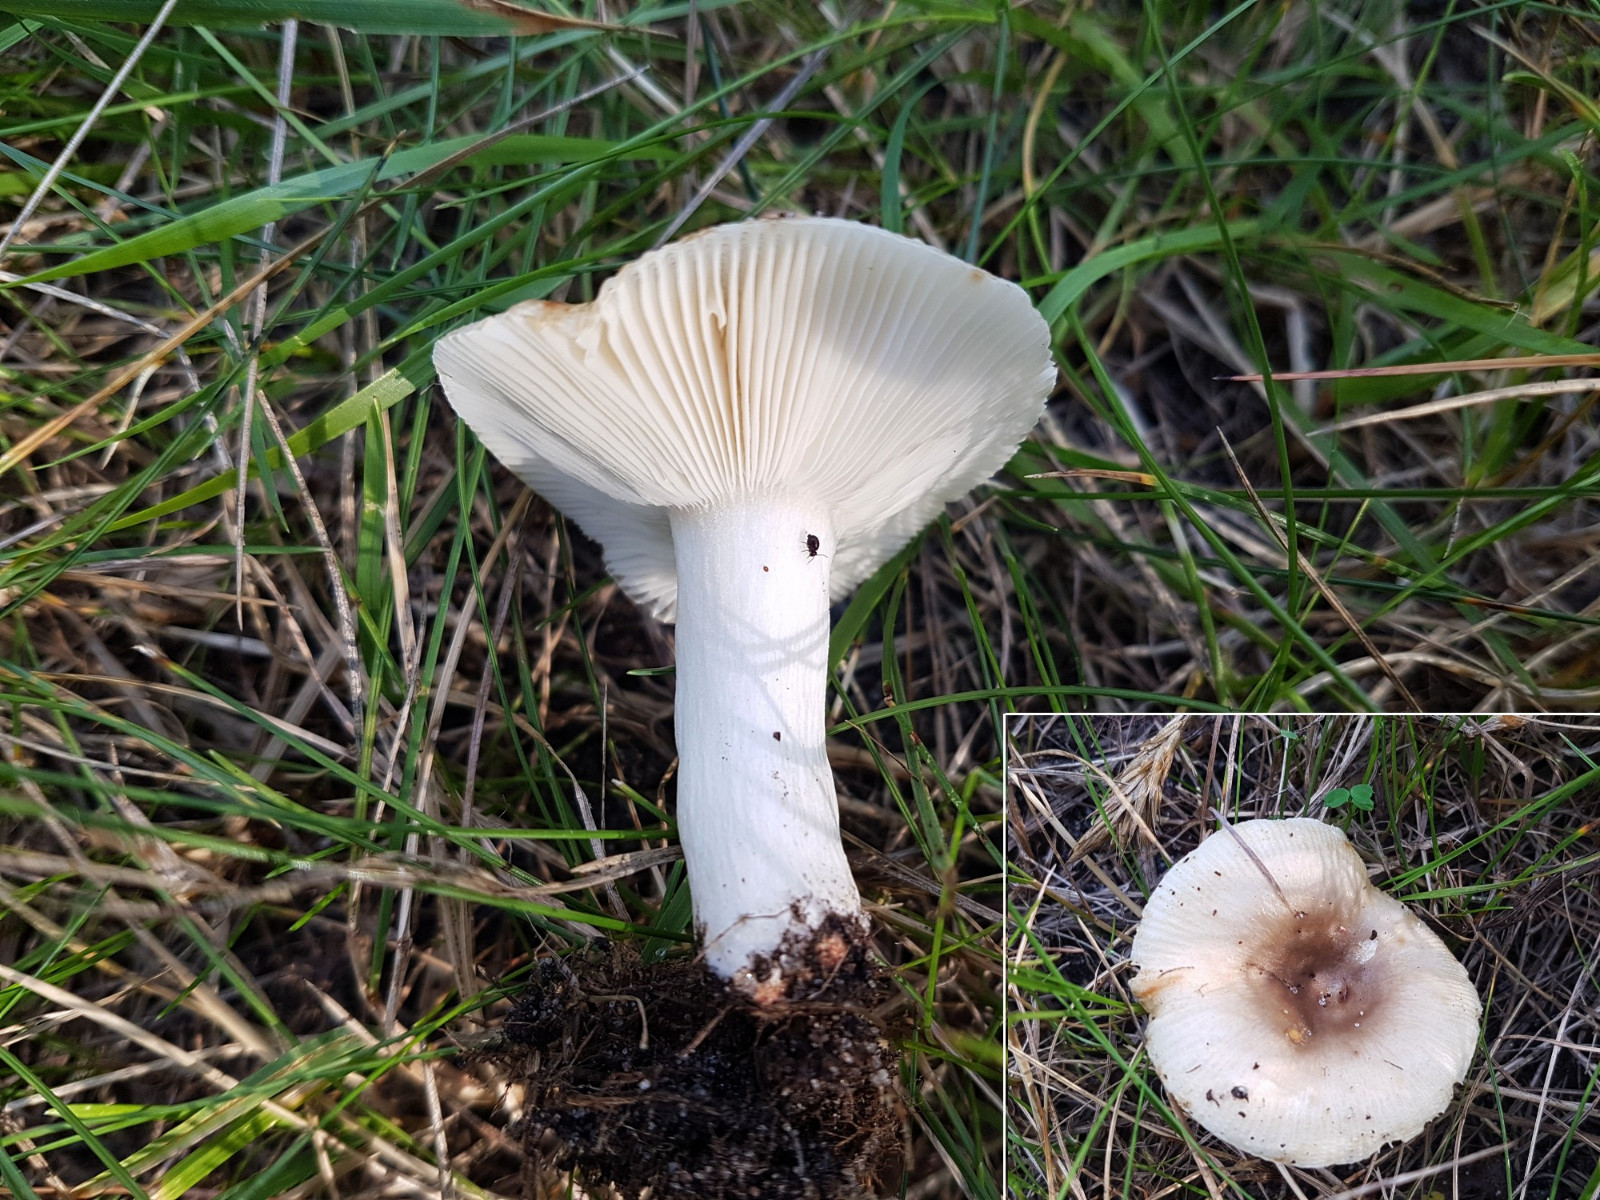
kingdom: Fungi
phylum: Basidiomycota
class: Agaricomycetes
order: Russulales
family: Russulaceae
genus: Russula
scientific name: Russula recondita
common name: mild kam-skørhat
